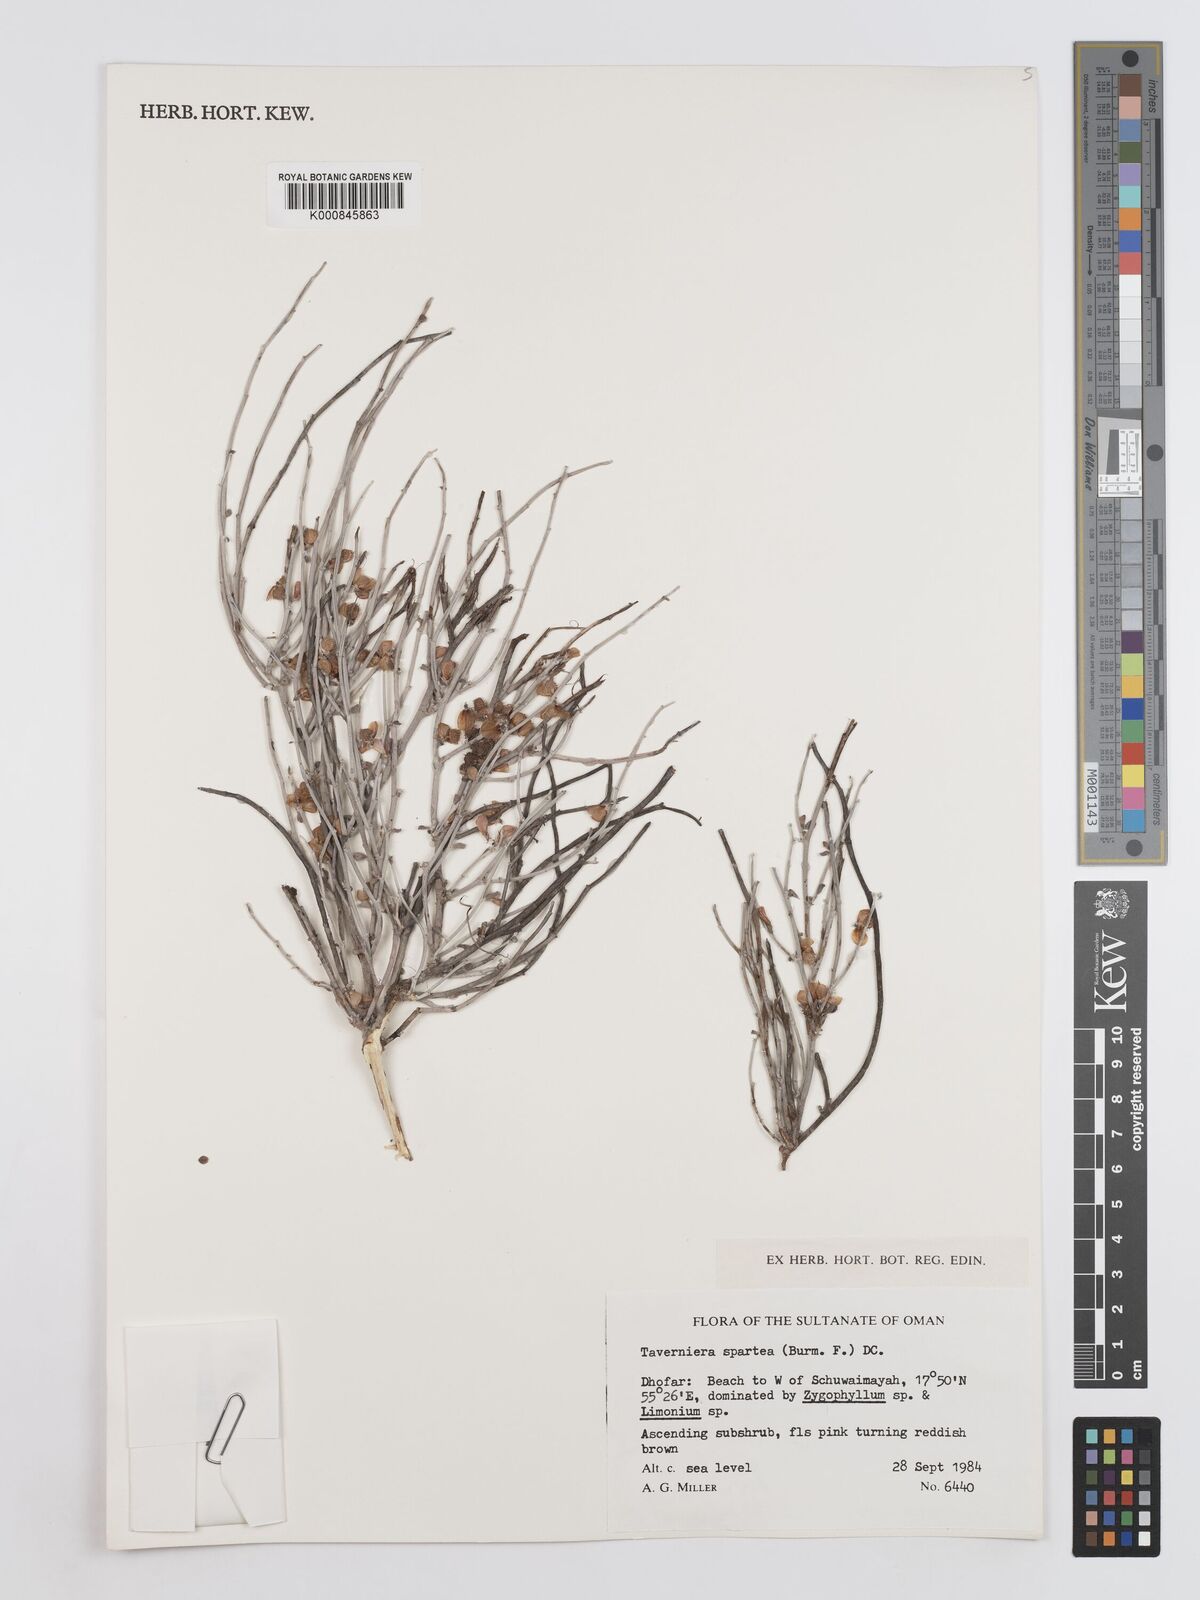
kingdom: Plantae
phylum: Tracheophyta
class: Magnoliopsida
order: Fabales
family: Fabaceae
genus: Taverniera
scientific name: Taverniera spartea
